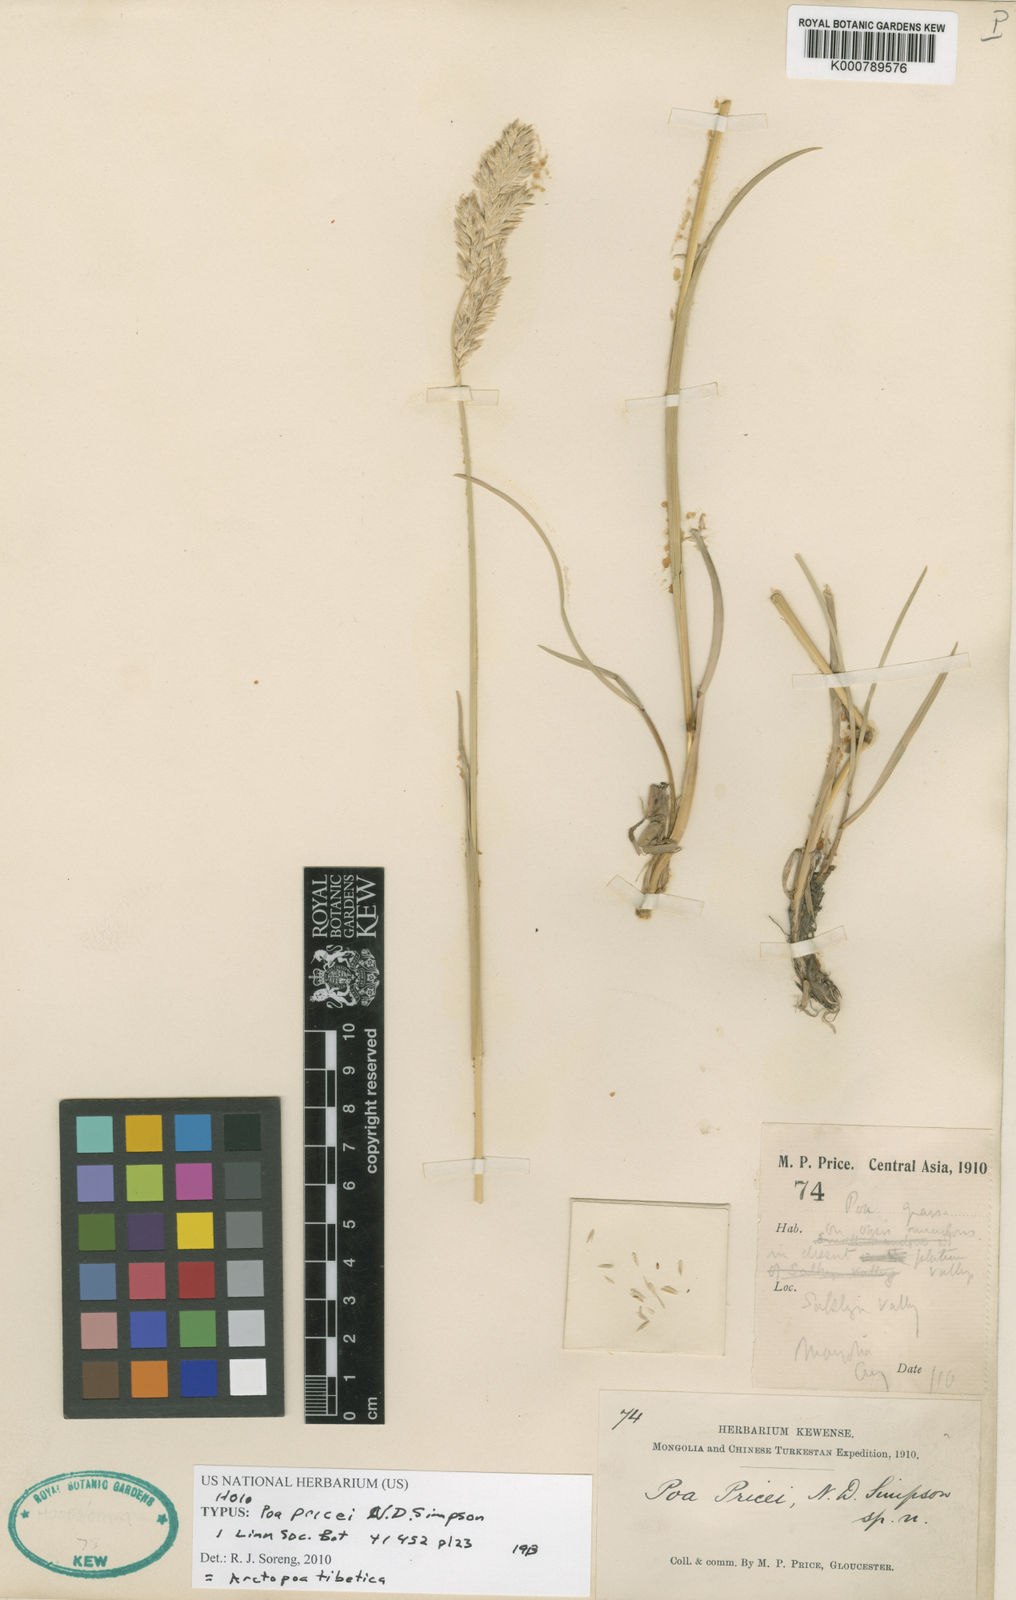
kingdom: Plantae
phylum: Tracheophyta
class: Liliopsida
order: Poales
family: Poaceae
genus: Arctopoa
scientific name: Arctopoa tibetica
